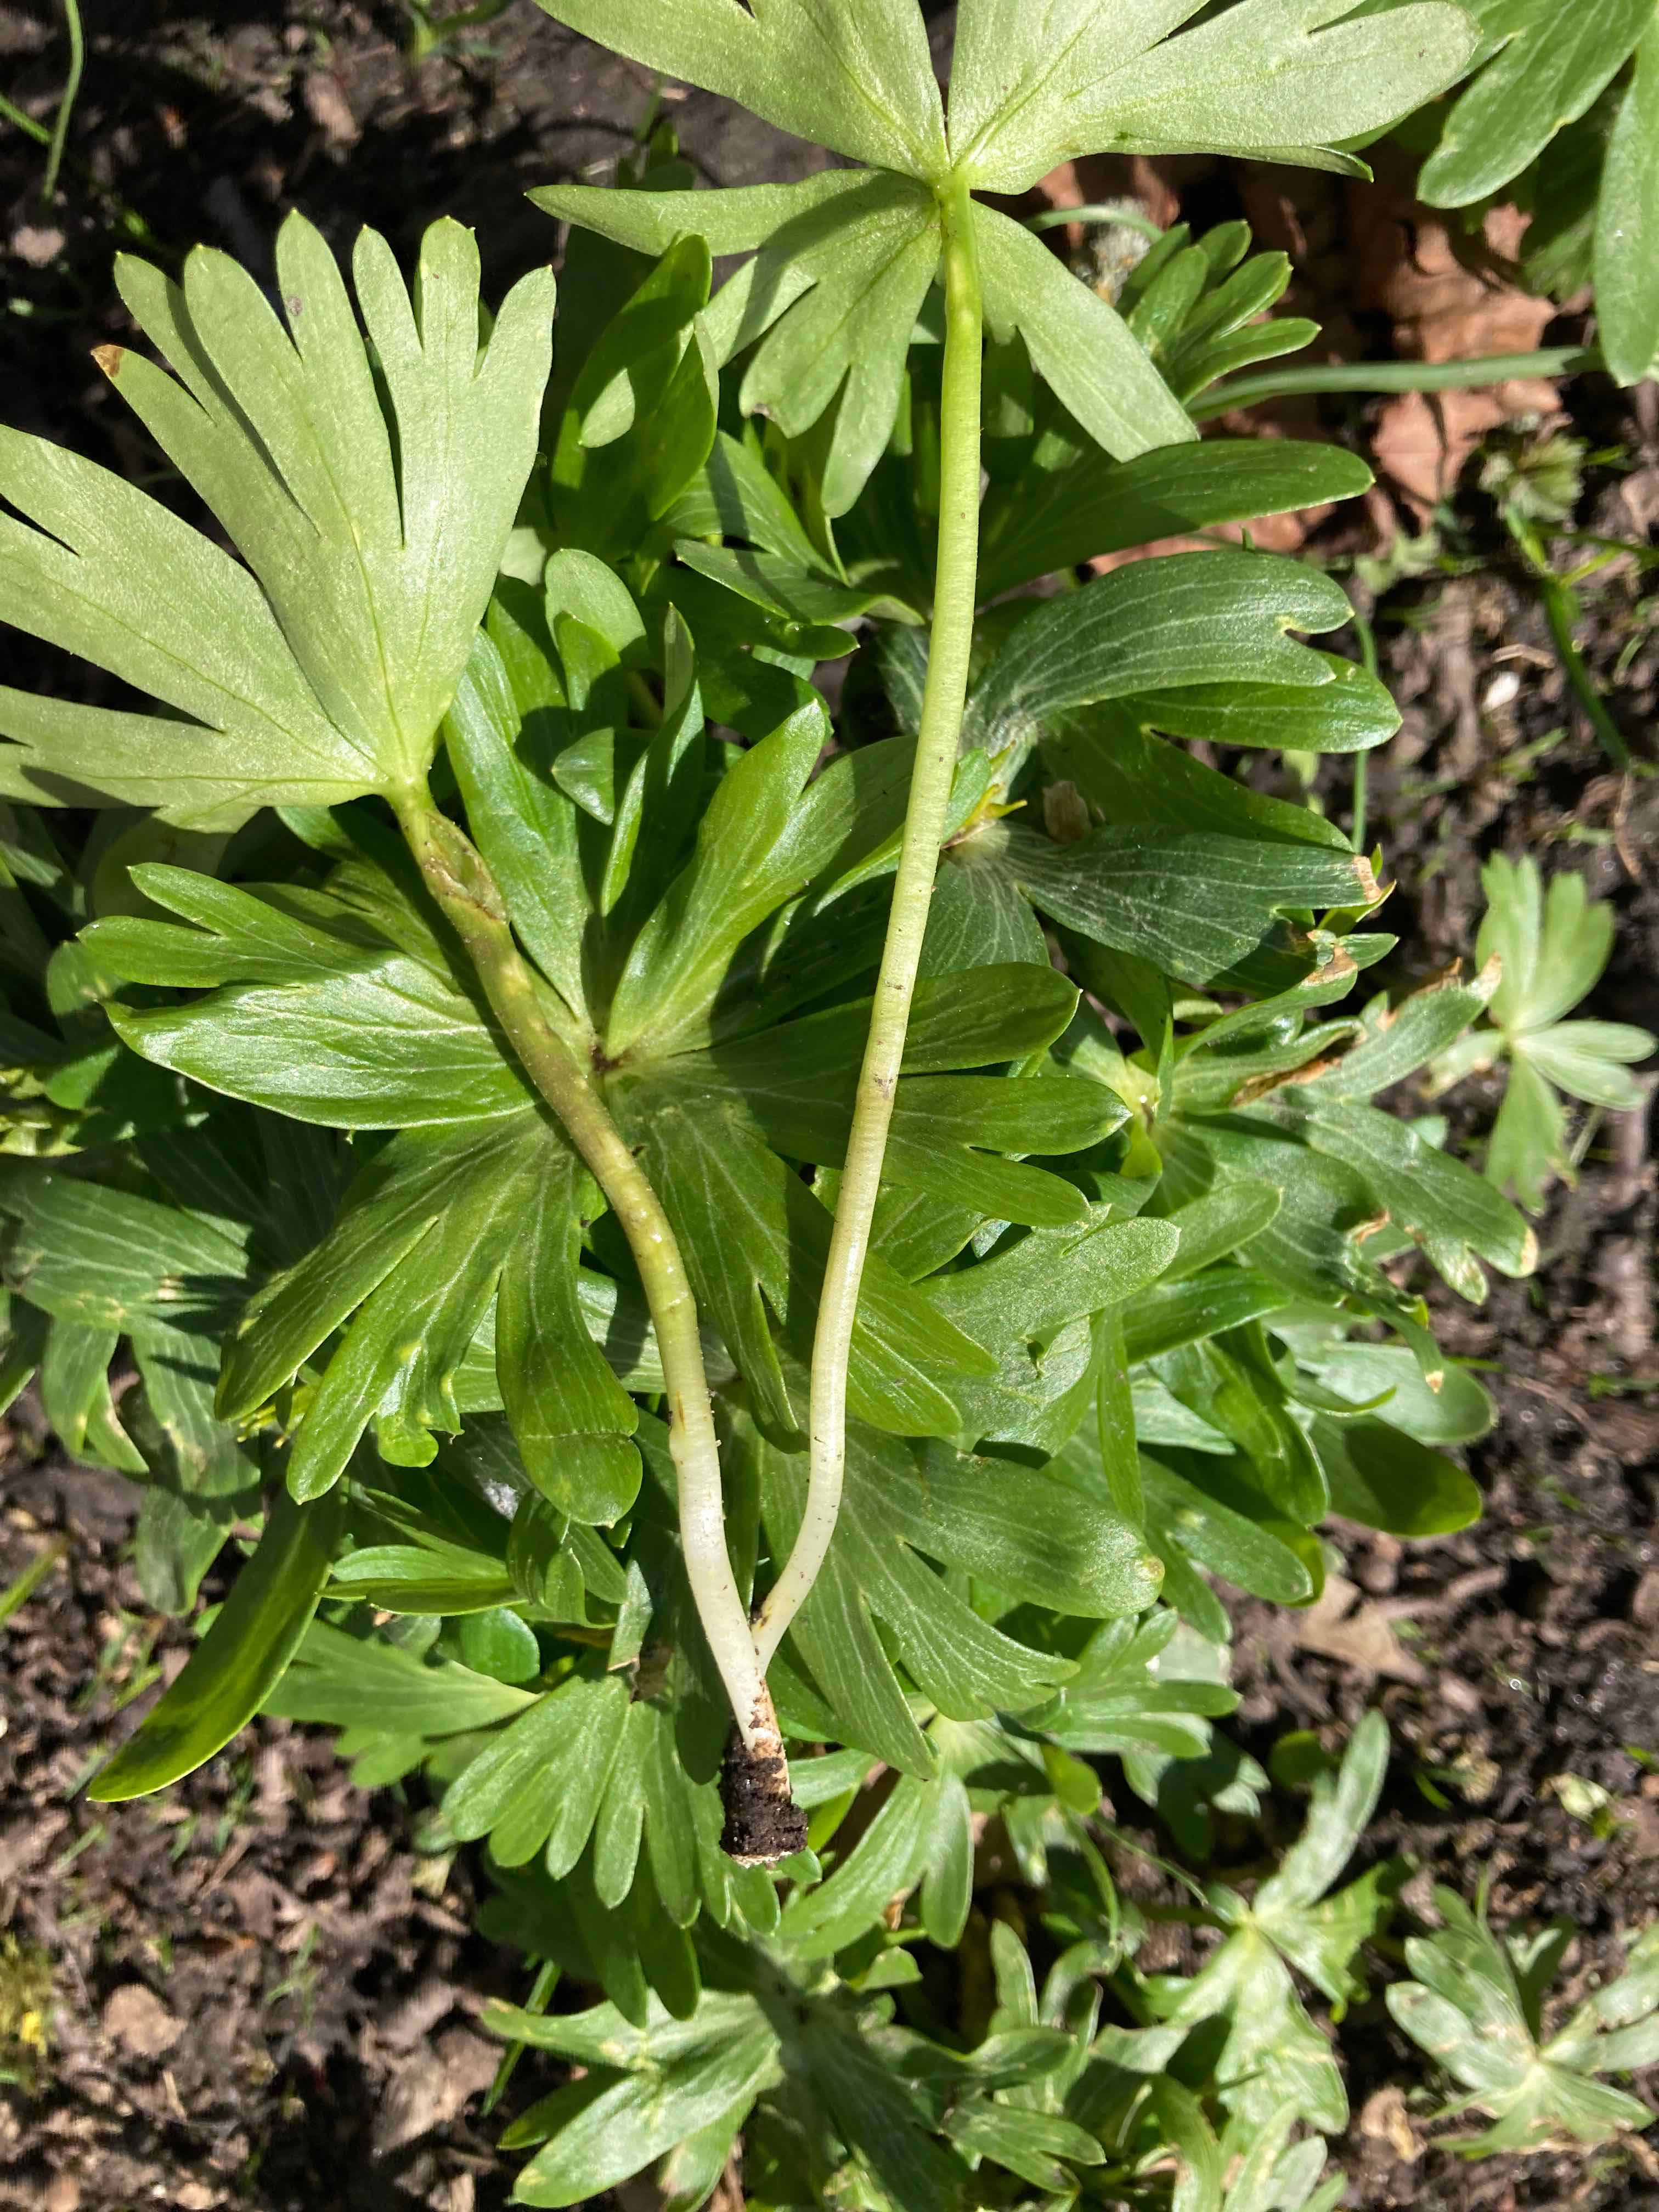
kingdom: Fungi
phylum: Basidiomycota
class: Ustilaginomycetes
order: Urocystidales
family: Urocystidaceae
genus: Urocystis
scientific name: Urocystis eranthidis
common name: erantis-brand
